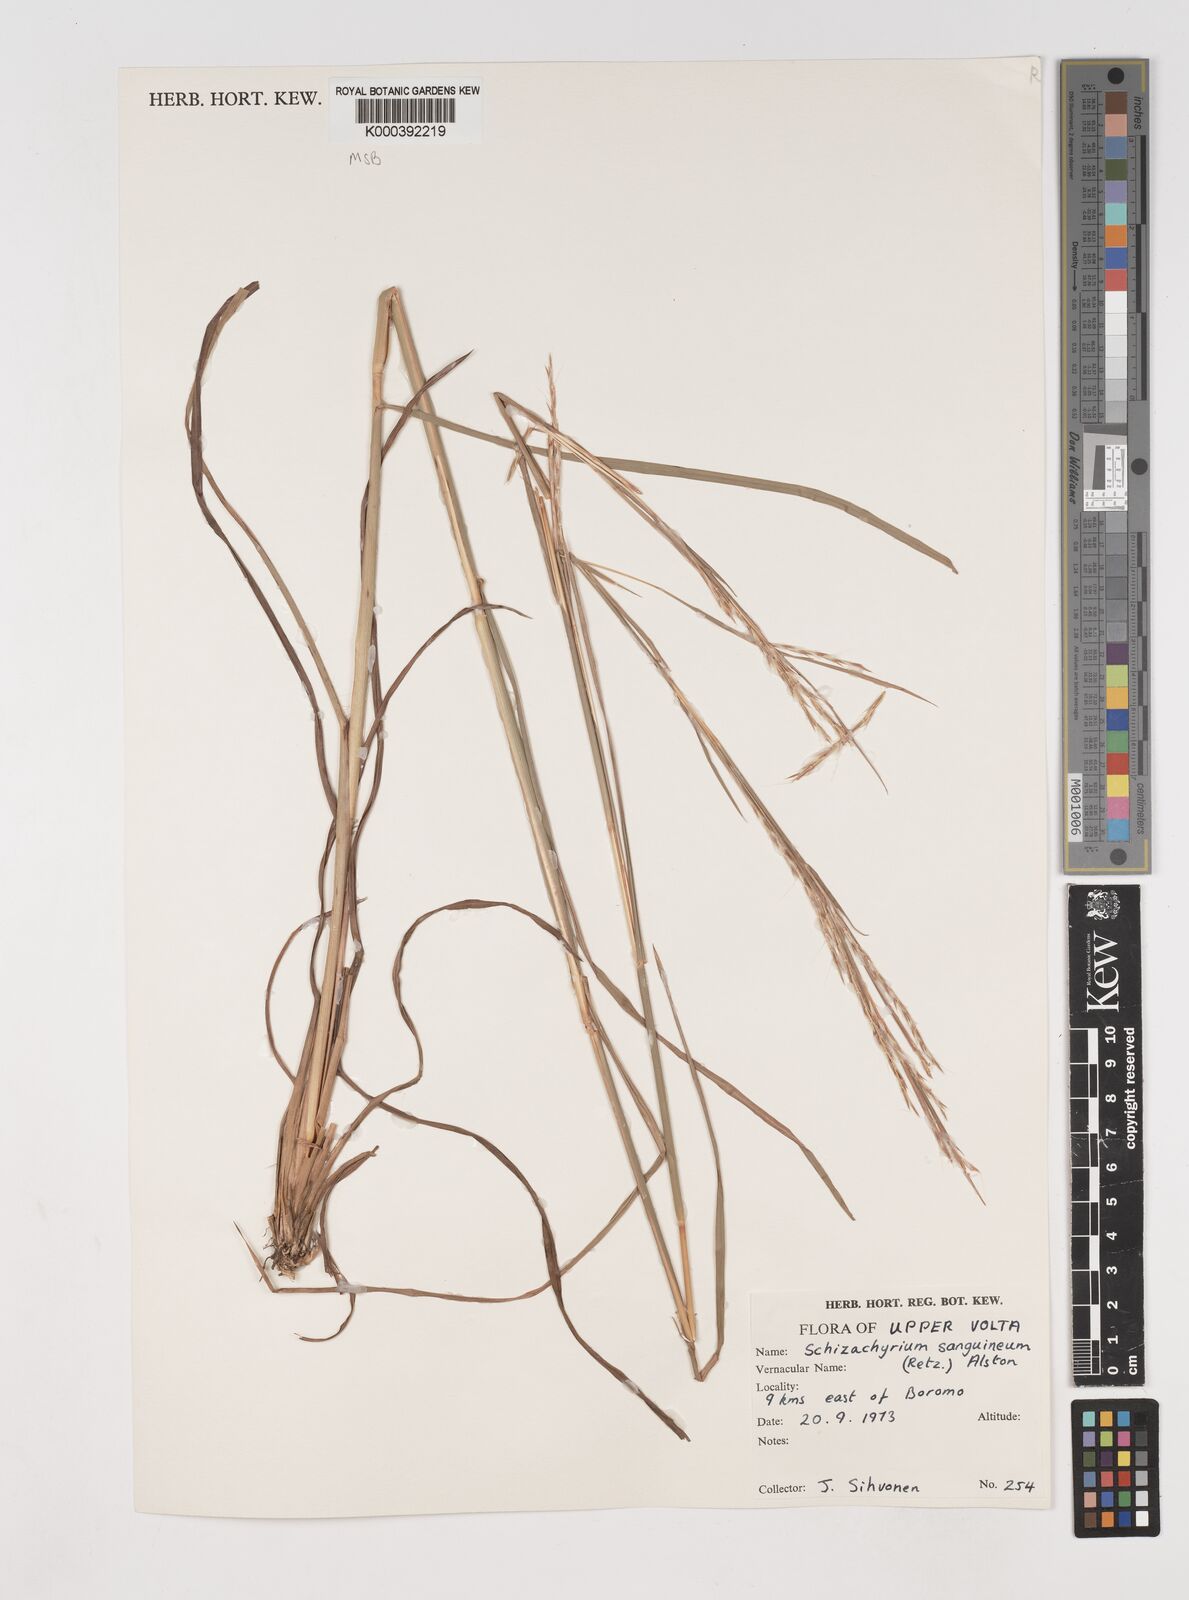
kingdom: Plantae
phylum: Tracheophyta
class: Liliopsida
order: Poales
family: Poaceae
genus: Schizachyrium
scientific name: Schizachyrium sanguineum
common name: Crimson bluestem
